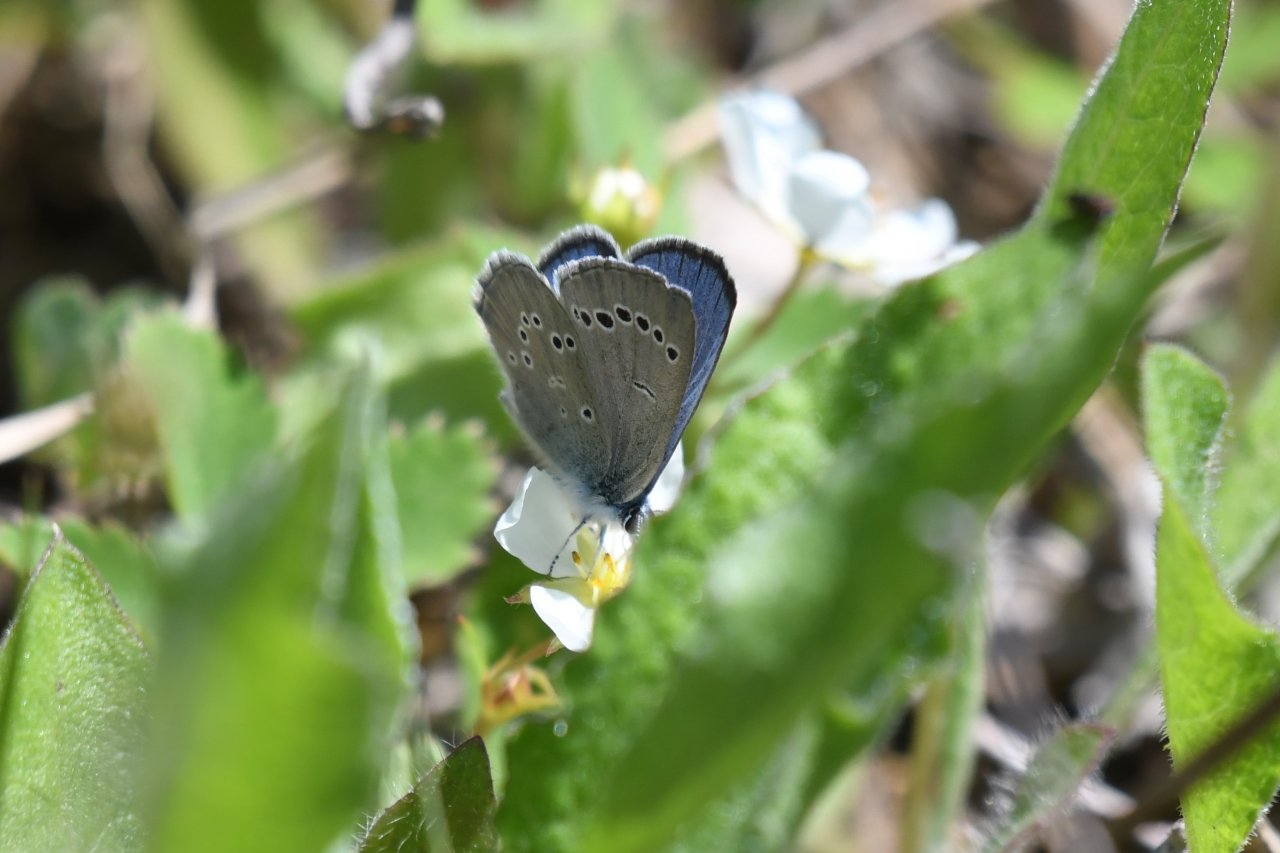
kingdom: Animalia
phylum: Arthropoda
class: Insecta
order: Lepidoptera
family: Lycaenidae
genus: Glaucopsyche
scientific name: Glaucopsyche lygdamus
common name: Silvery Blue
